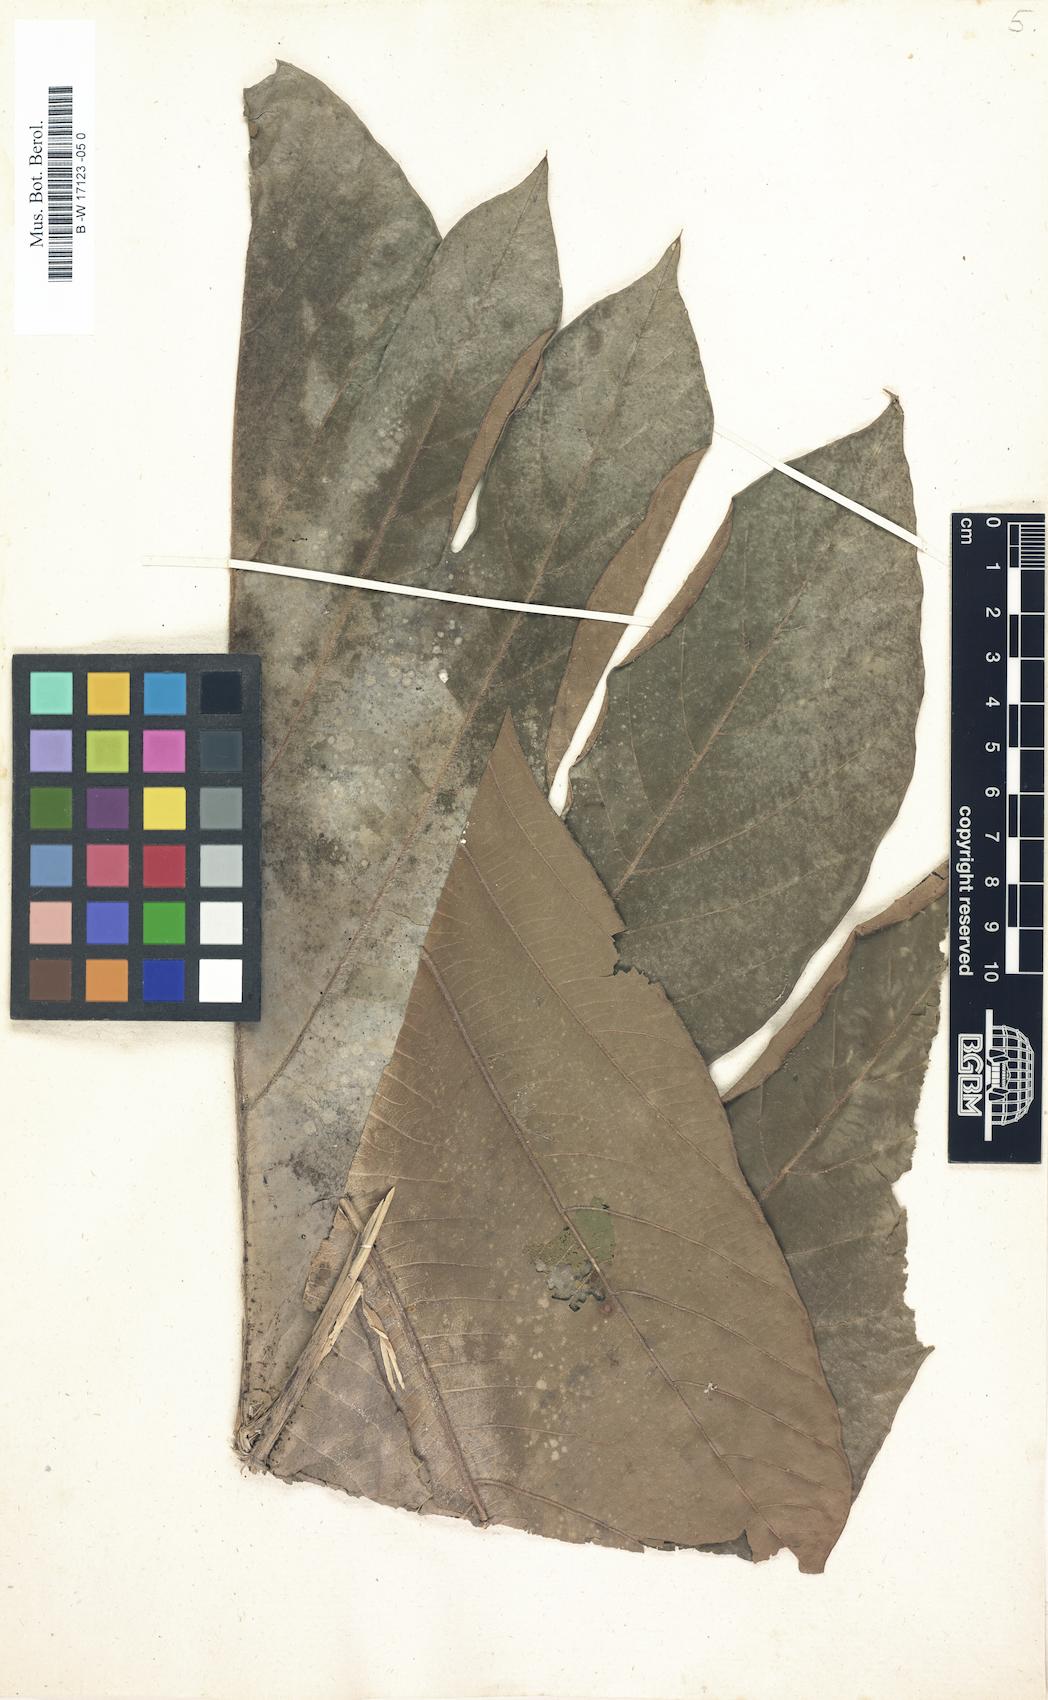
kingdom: Plantae
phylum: Tracheophyta
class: Magnoliopsida
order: Rosales
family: Moraceae
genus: Artocarpus
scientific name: Artocarpus altilis
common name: Breadfruit
